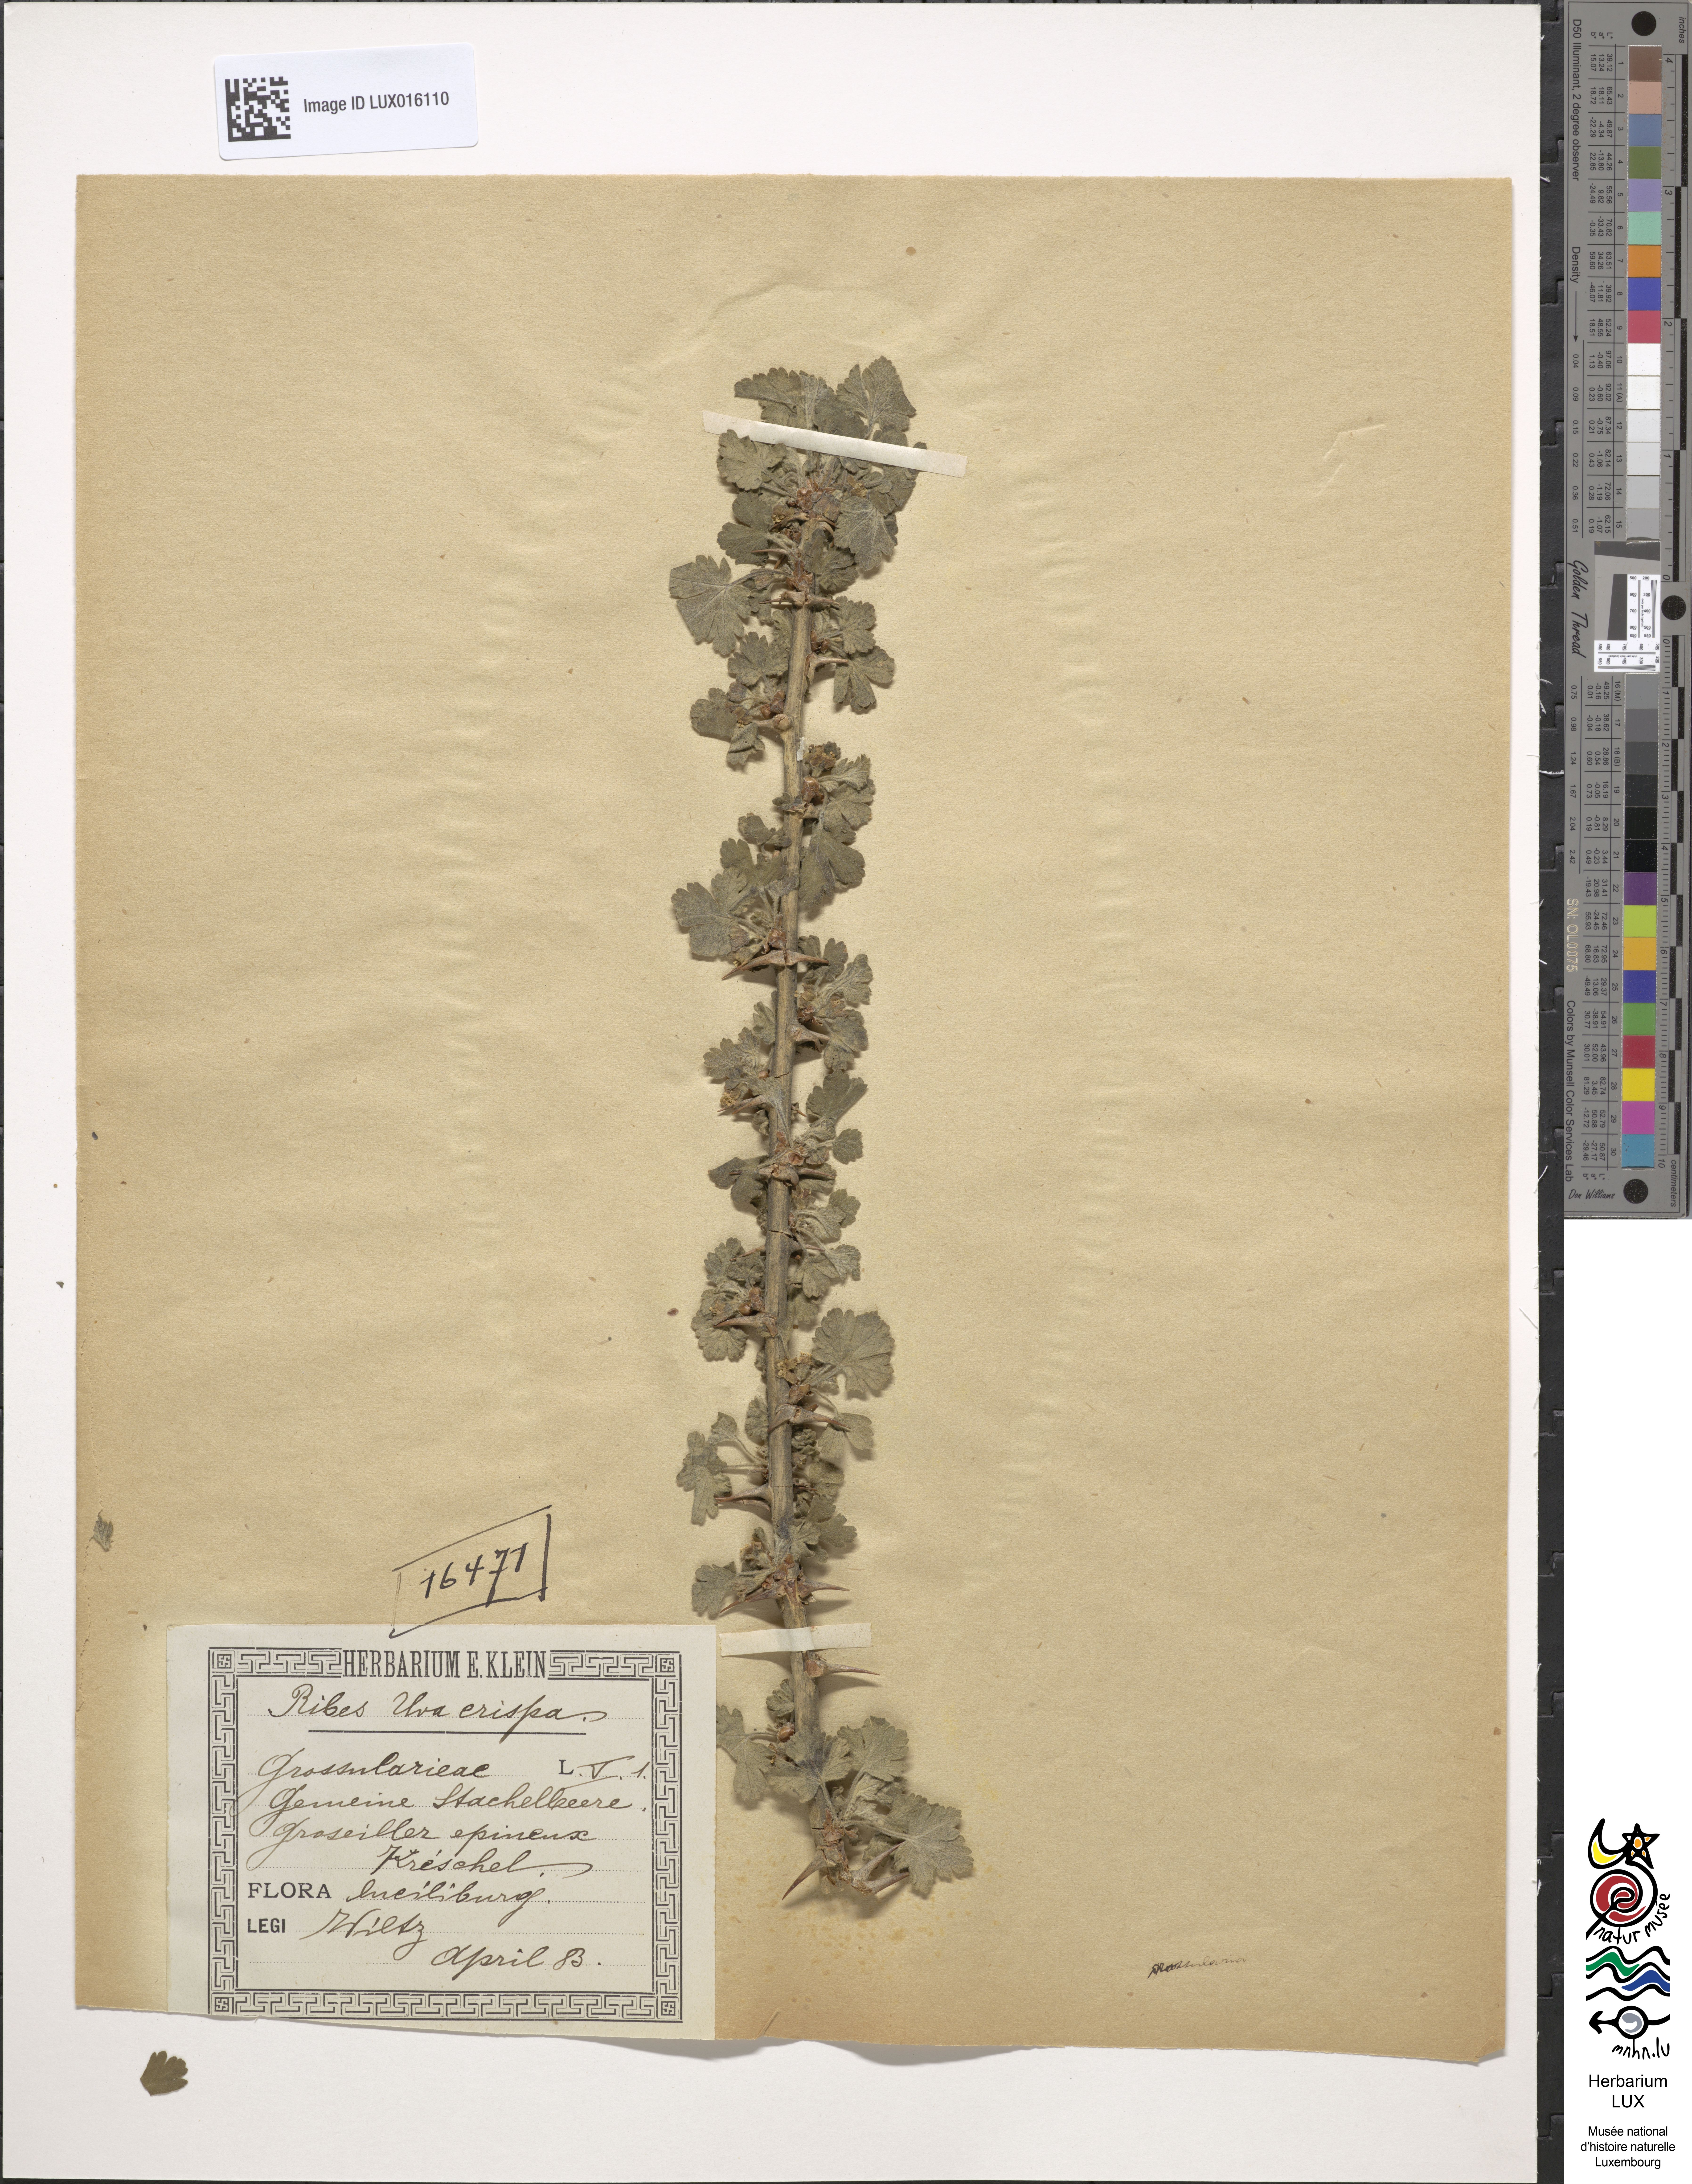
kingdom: Plantae
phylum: Tracheophyta
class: Magnoliopsida
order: Saxifragales
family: Grossulariaceae
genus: Ribes
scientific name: Ribes uva-crispa
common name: Gooseberry
